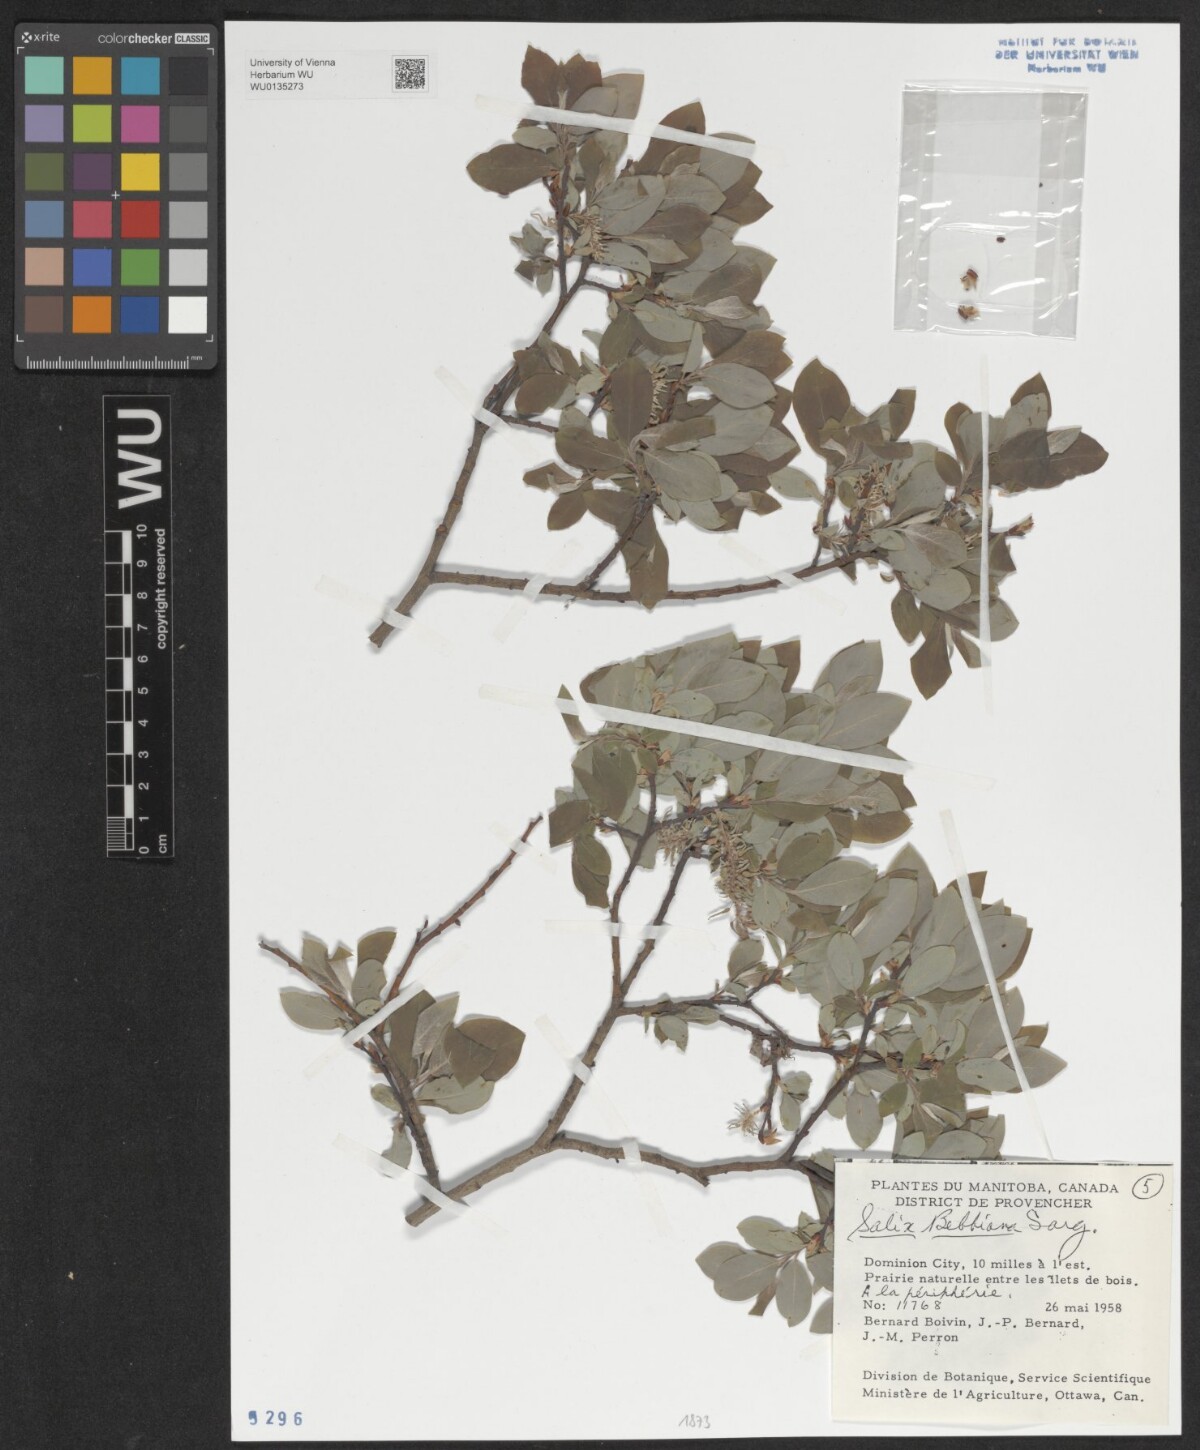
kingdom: Plantae
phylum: Tracheophyta
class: Magnoliopsida
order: Malpighiales
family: Salicaceae
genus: Salix
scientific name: Salix bebbiana
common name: Bebb's willow
